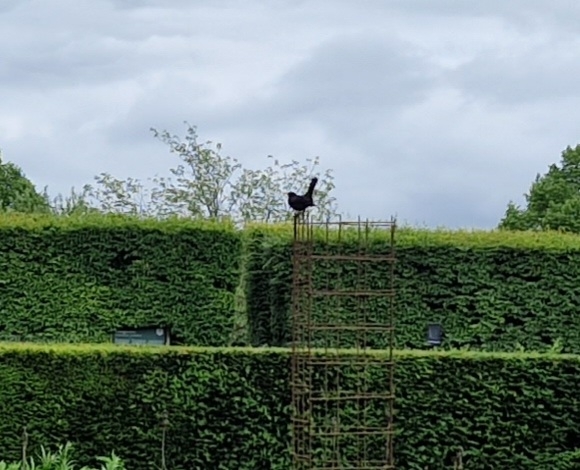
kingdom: Animalia
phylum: Chordata
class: Aves
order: Passeriformes
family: Turdidae
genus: Turdus
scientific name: Turdus merula
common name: Solsort
